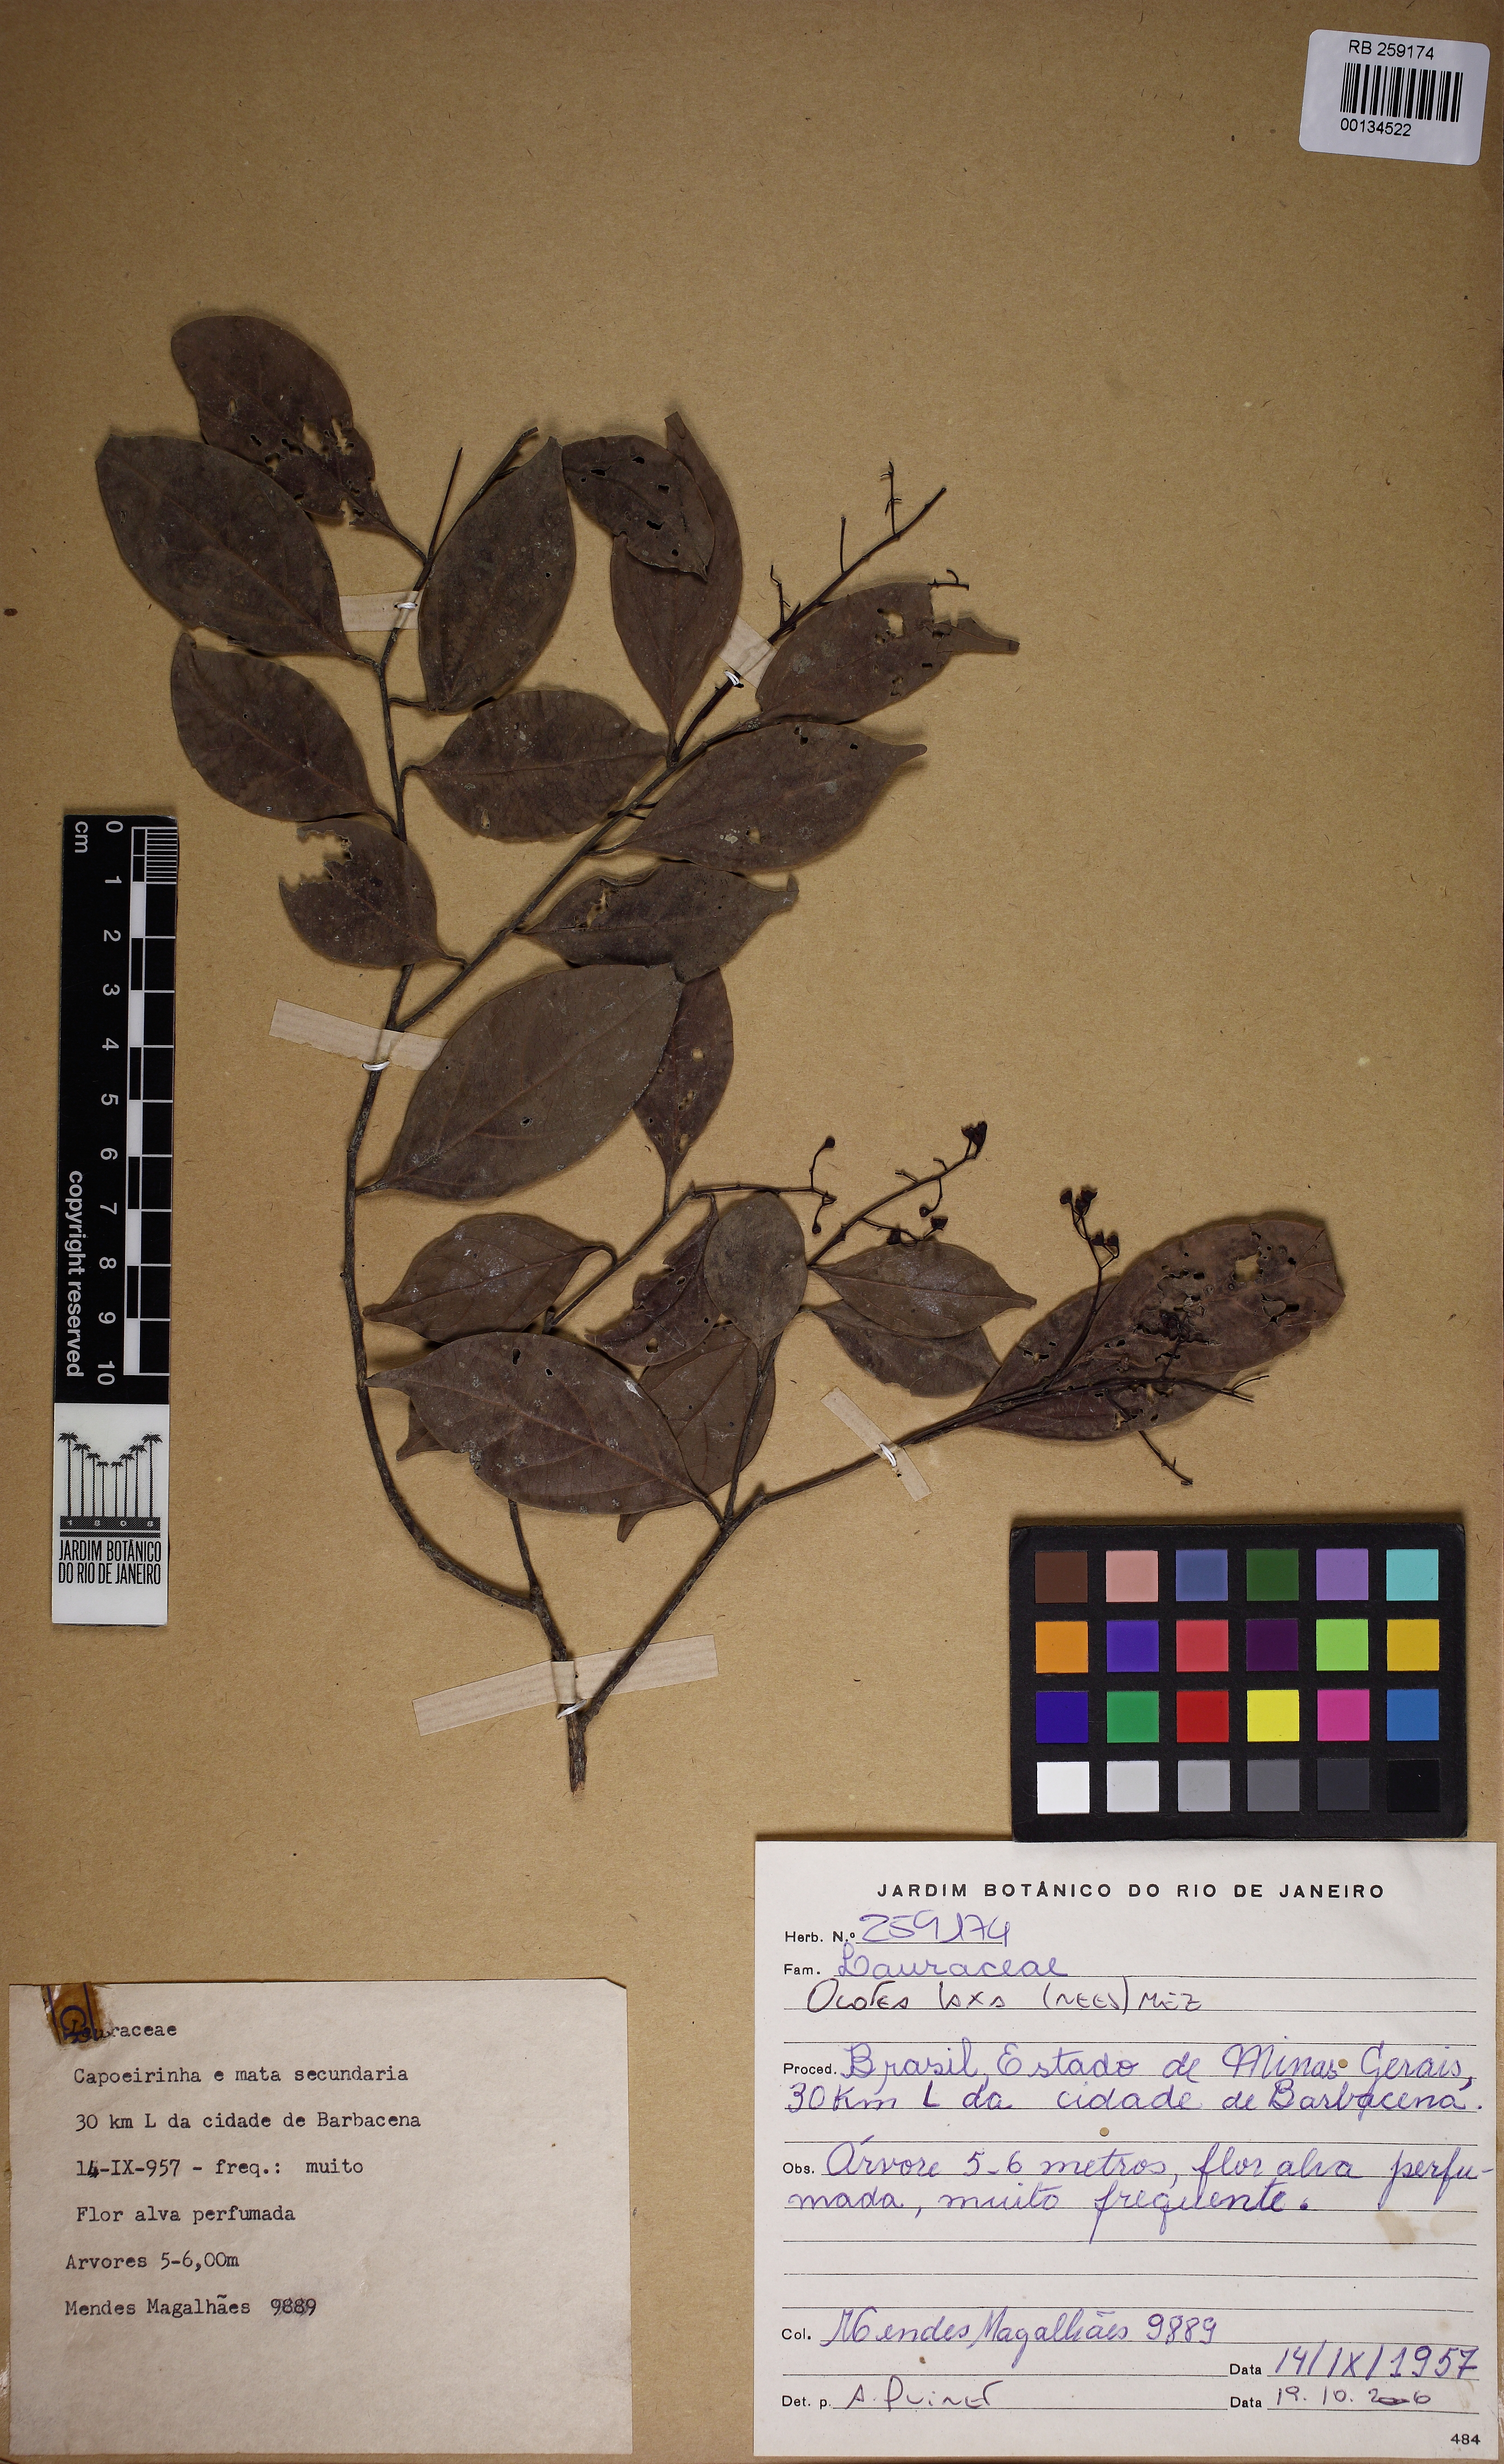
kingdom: Plantae
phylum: Tracheophyta
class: Magnoliopsida
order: Laurales
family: Lauraceae
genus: Ocotea
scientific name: Ocotea laxa
